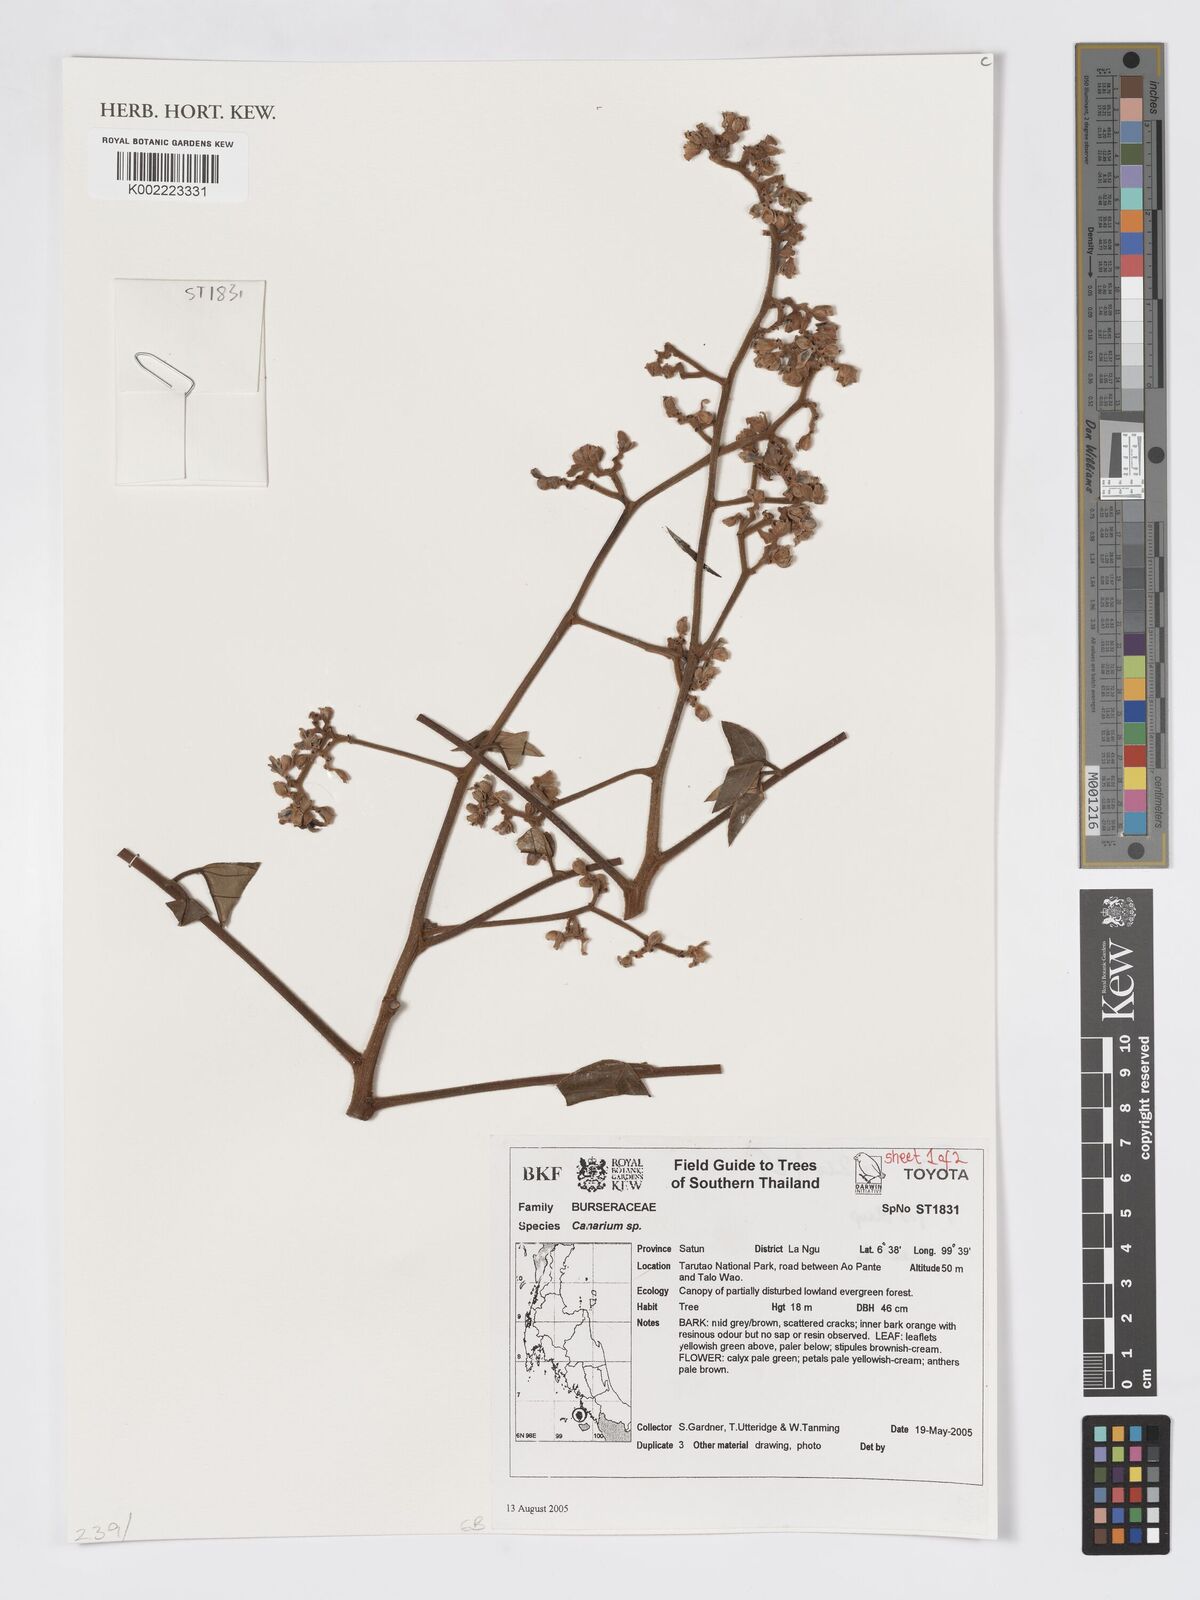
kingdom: Plantae
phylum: Tracheophyta
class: Magnoliopsida
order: Sapindales
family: Burseraceae
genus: Canarium
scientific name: Canarium
